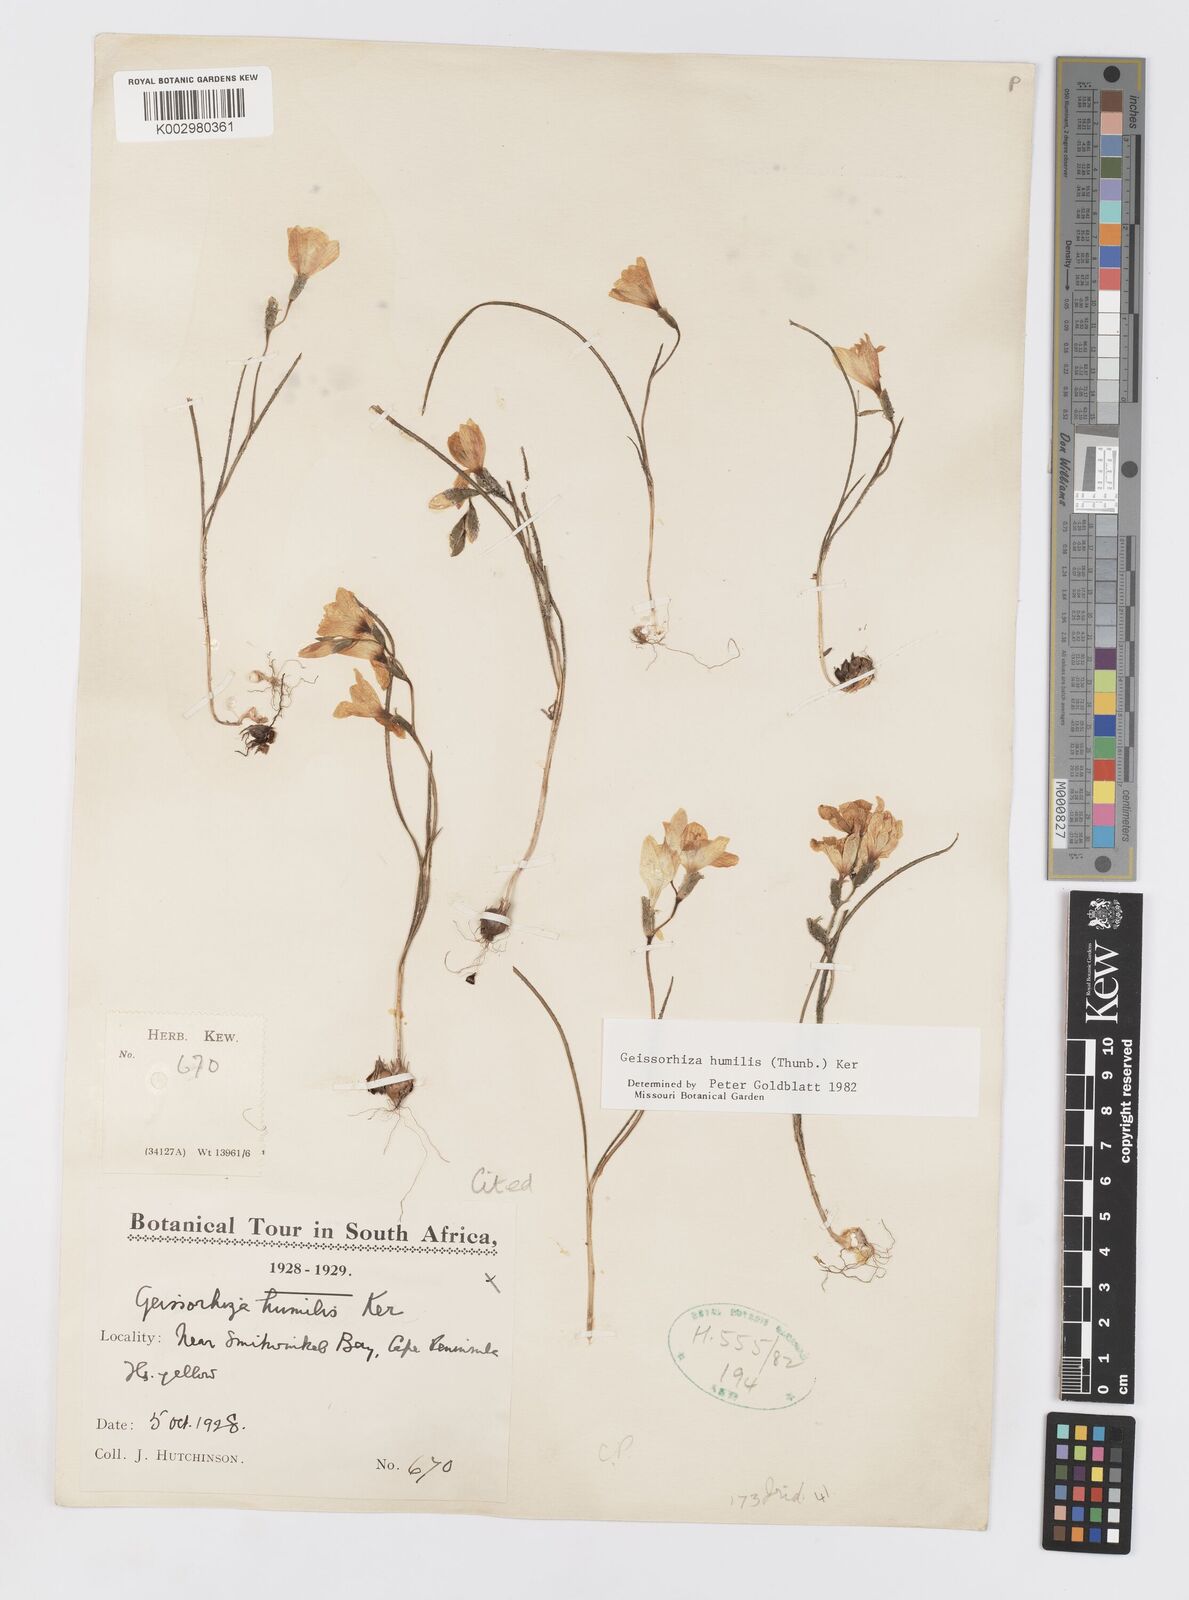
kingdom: Plantae
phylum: Tracheophyta
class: Liliopsida
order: Asparagales
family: Iridaceae
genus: Geissorhiza
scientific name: Geissorhiza humilis
